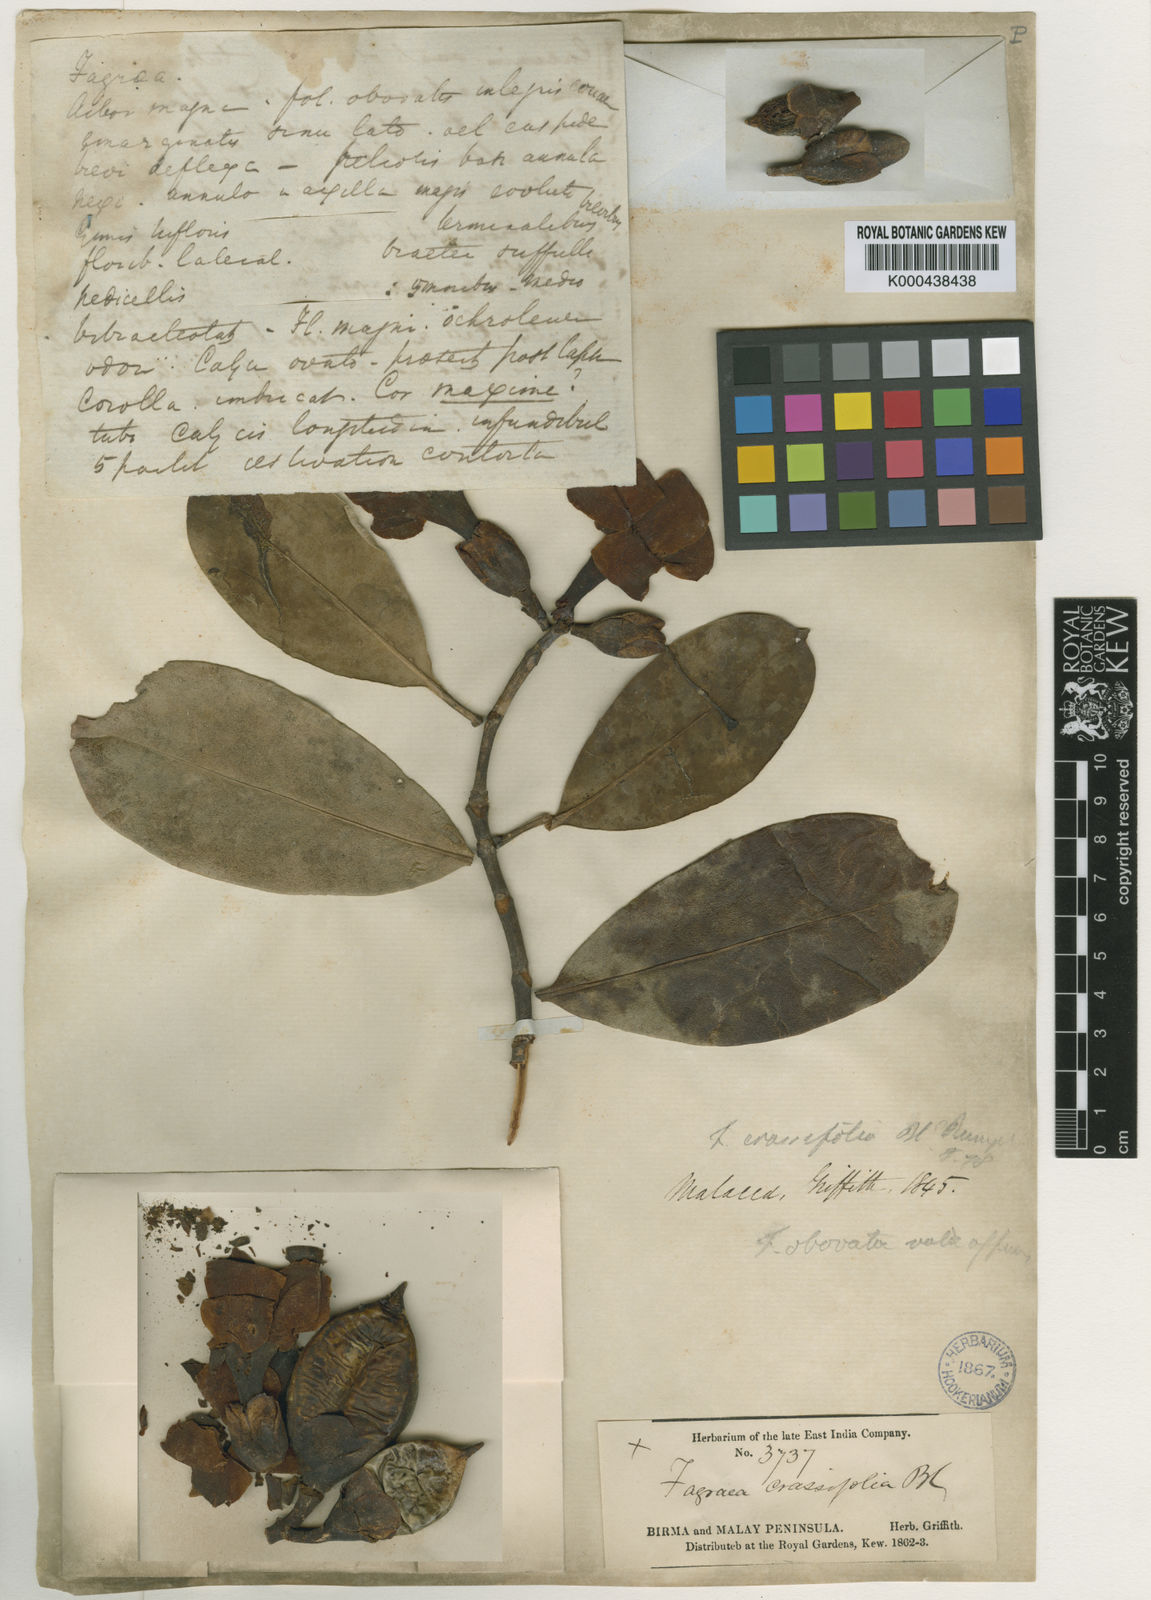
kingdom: Plantae
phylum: Tracheophyta
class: Magnoliopsida
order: Gentianales
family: Gentianaceae
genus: Fagraea
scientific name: Fagraea crassifolia
